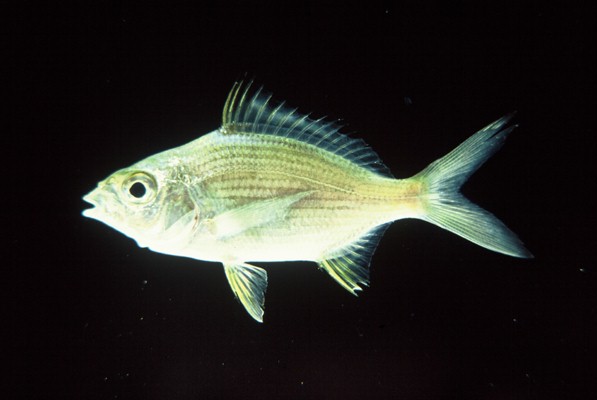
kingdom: Animalia
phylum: Chordata
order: Perciformes
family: Gerreidae
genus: Gerres
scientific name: Gerres methueni
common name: Longtail silverbiddy
